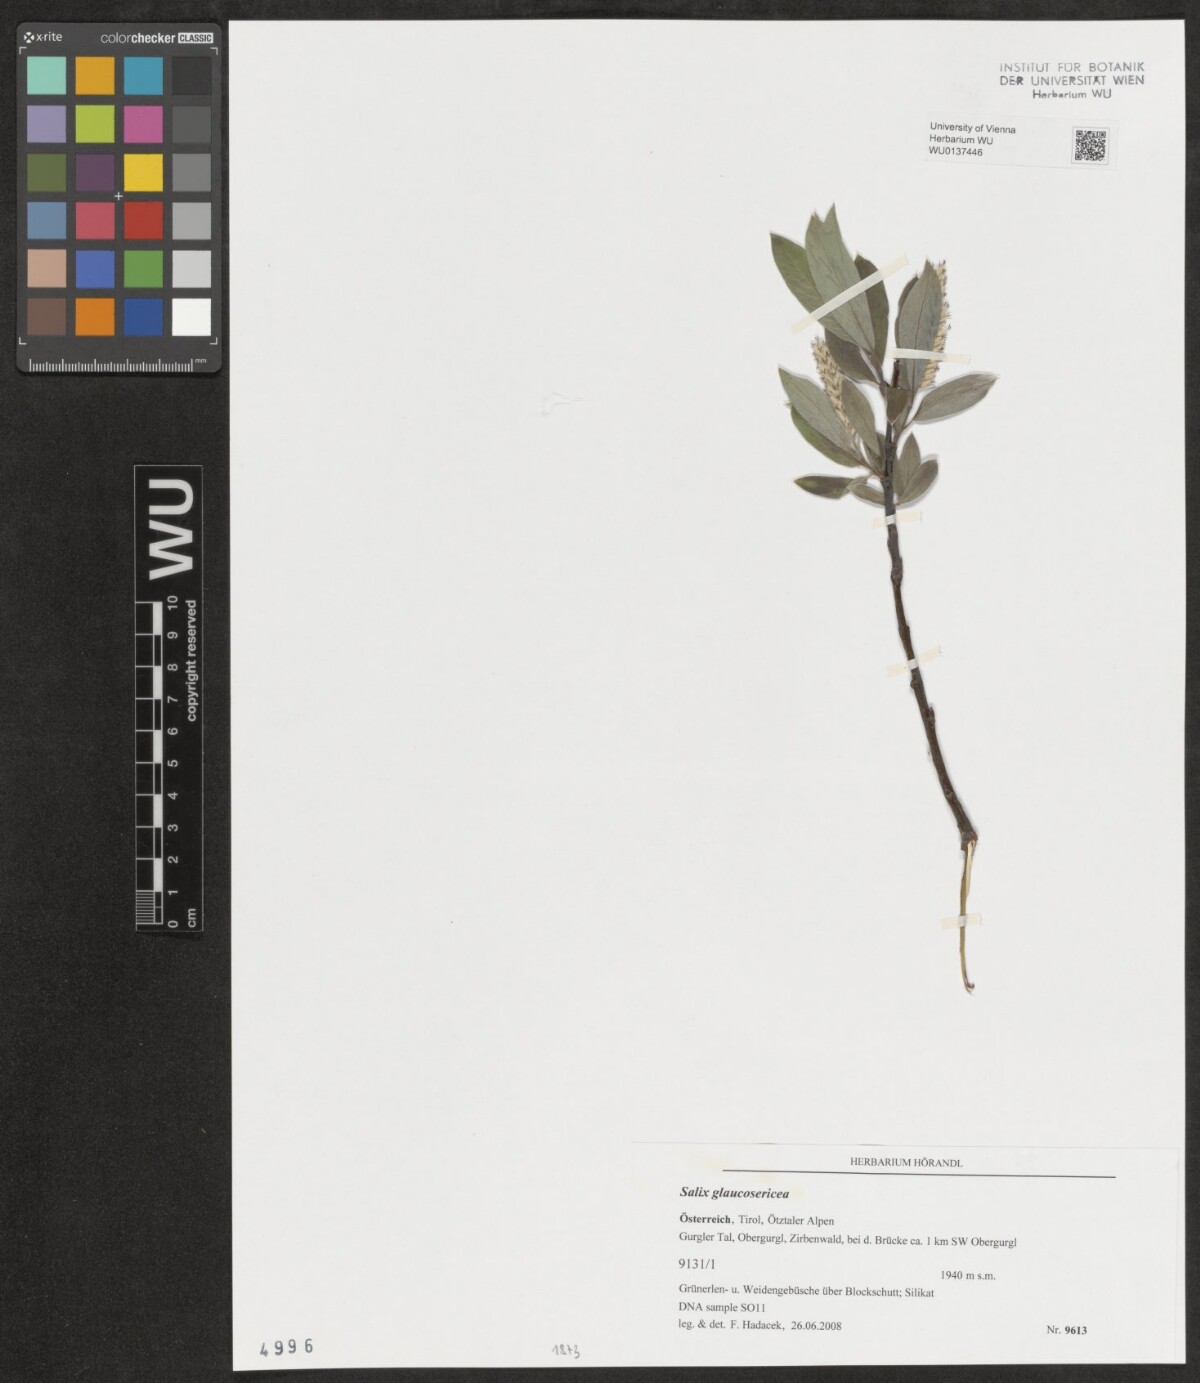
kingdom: Plantae
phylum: Tracheophyta
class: Magnoliopsida
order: Malpighiales
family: Salicaceae
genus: Salix
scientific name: Salix glaucosericea
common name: Alpine gray willow
